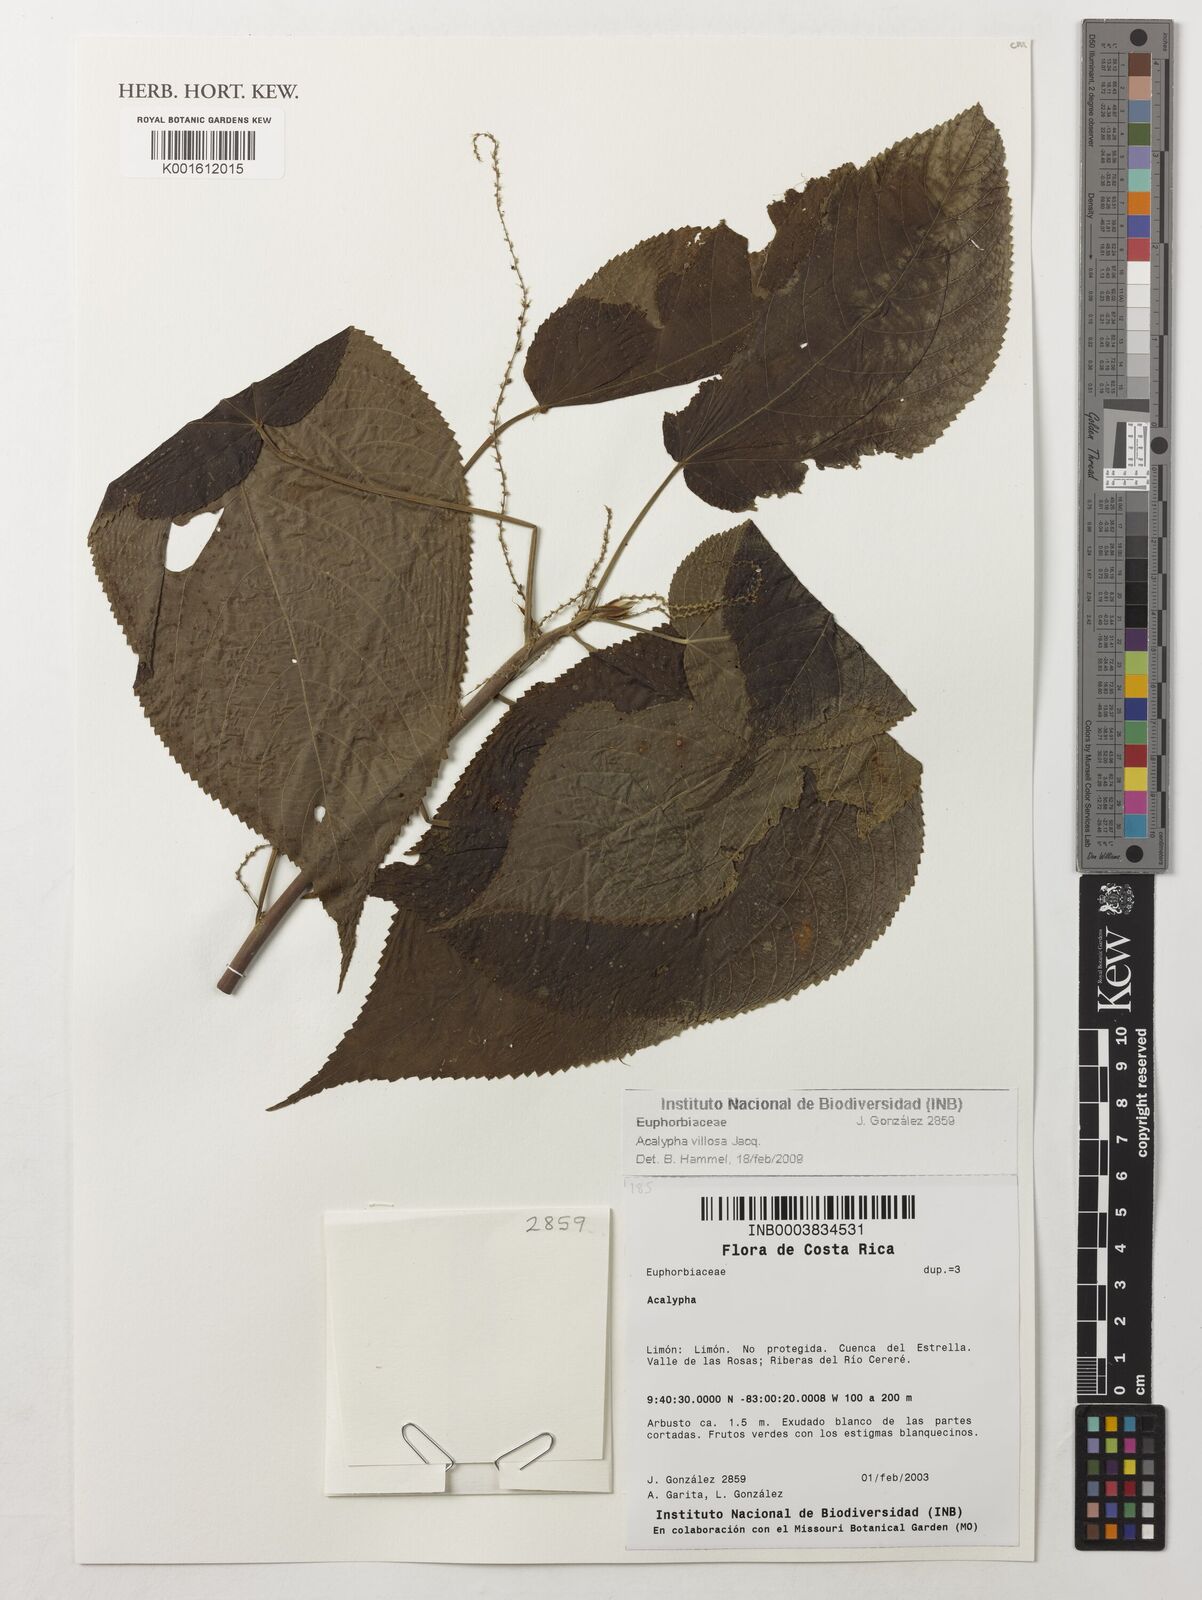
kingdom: Plantae
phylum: Tracheophyta
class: Magnoliopsida
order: Malpighiales
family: Euphorbiaceae
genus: Acalypha
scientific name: Acalypha villosa
